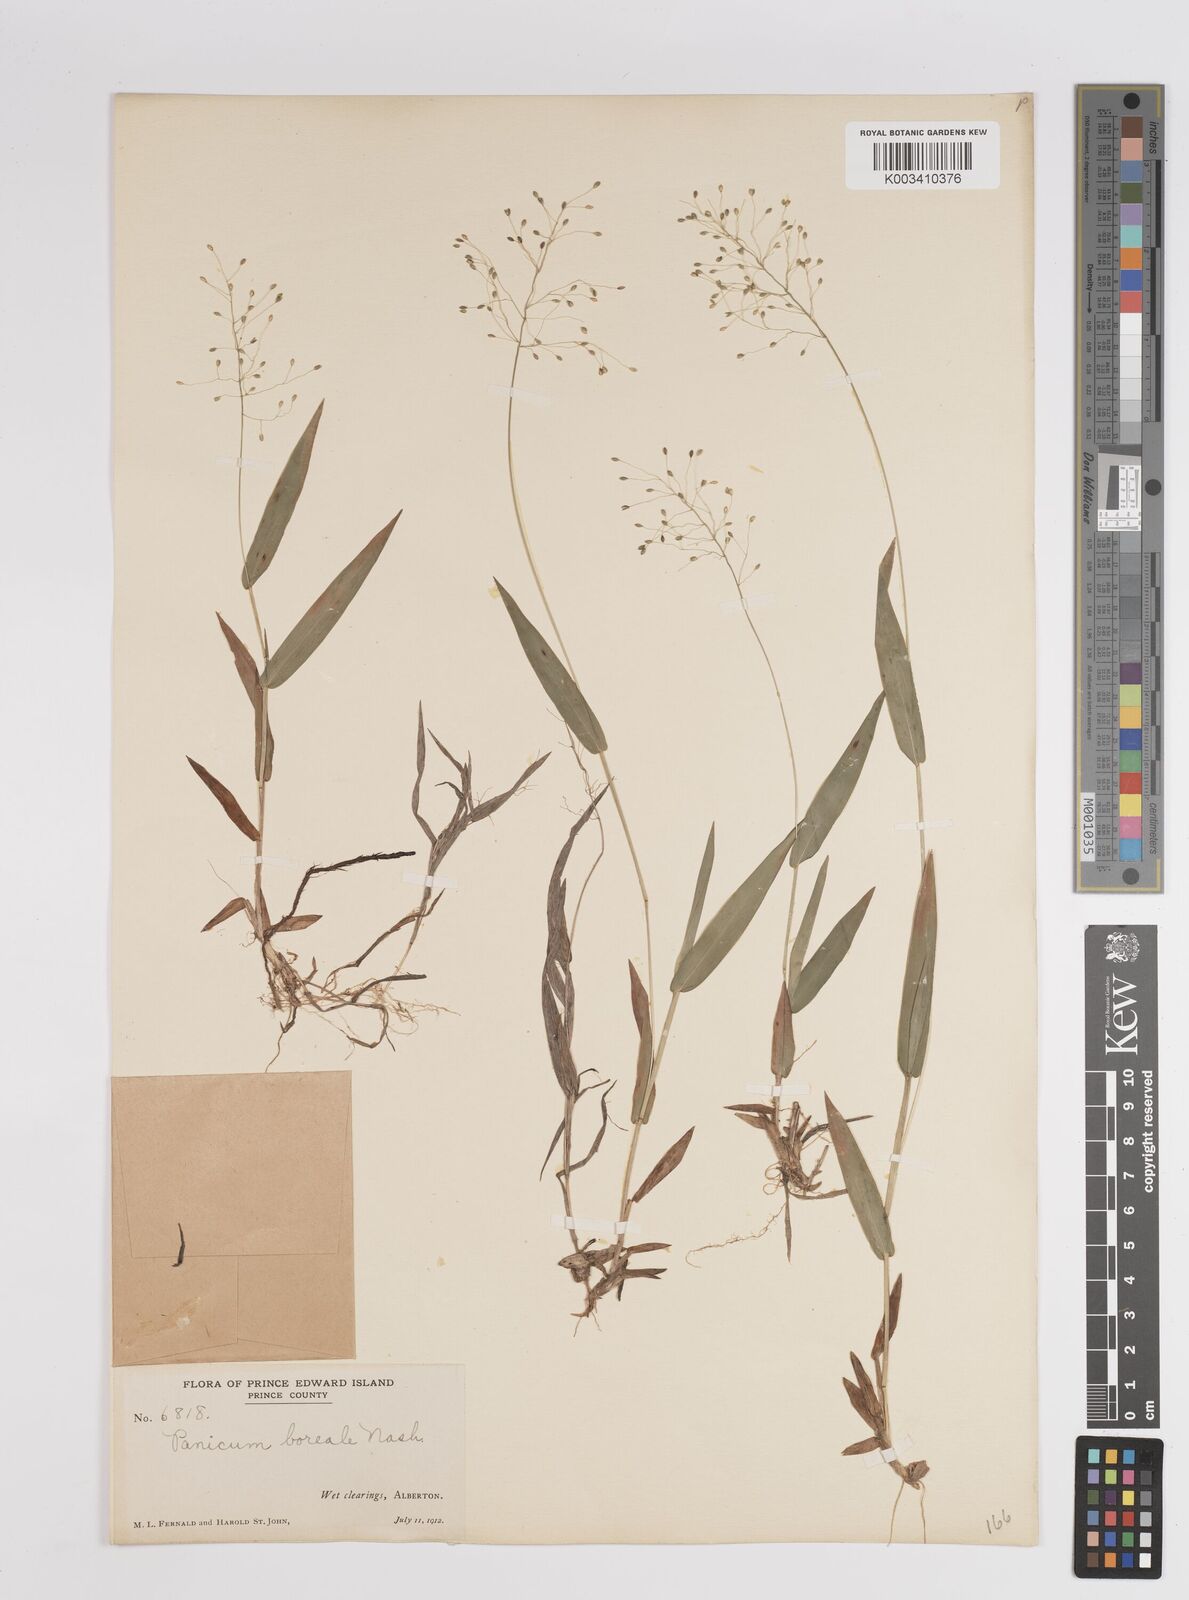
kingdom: Plantae
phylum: Tracheophyta
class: Liliopsida
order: Poales
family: Poaceae
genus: Dichanthelium
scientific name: Dichanthelium boreale
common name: Northern panicgrass
